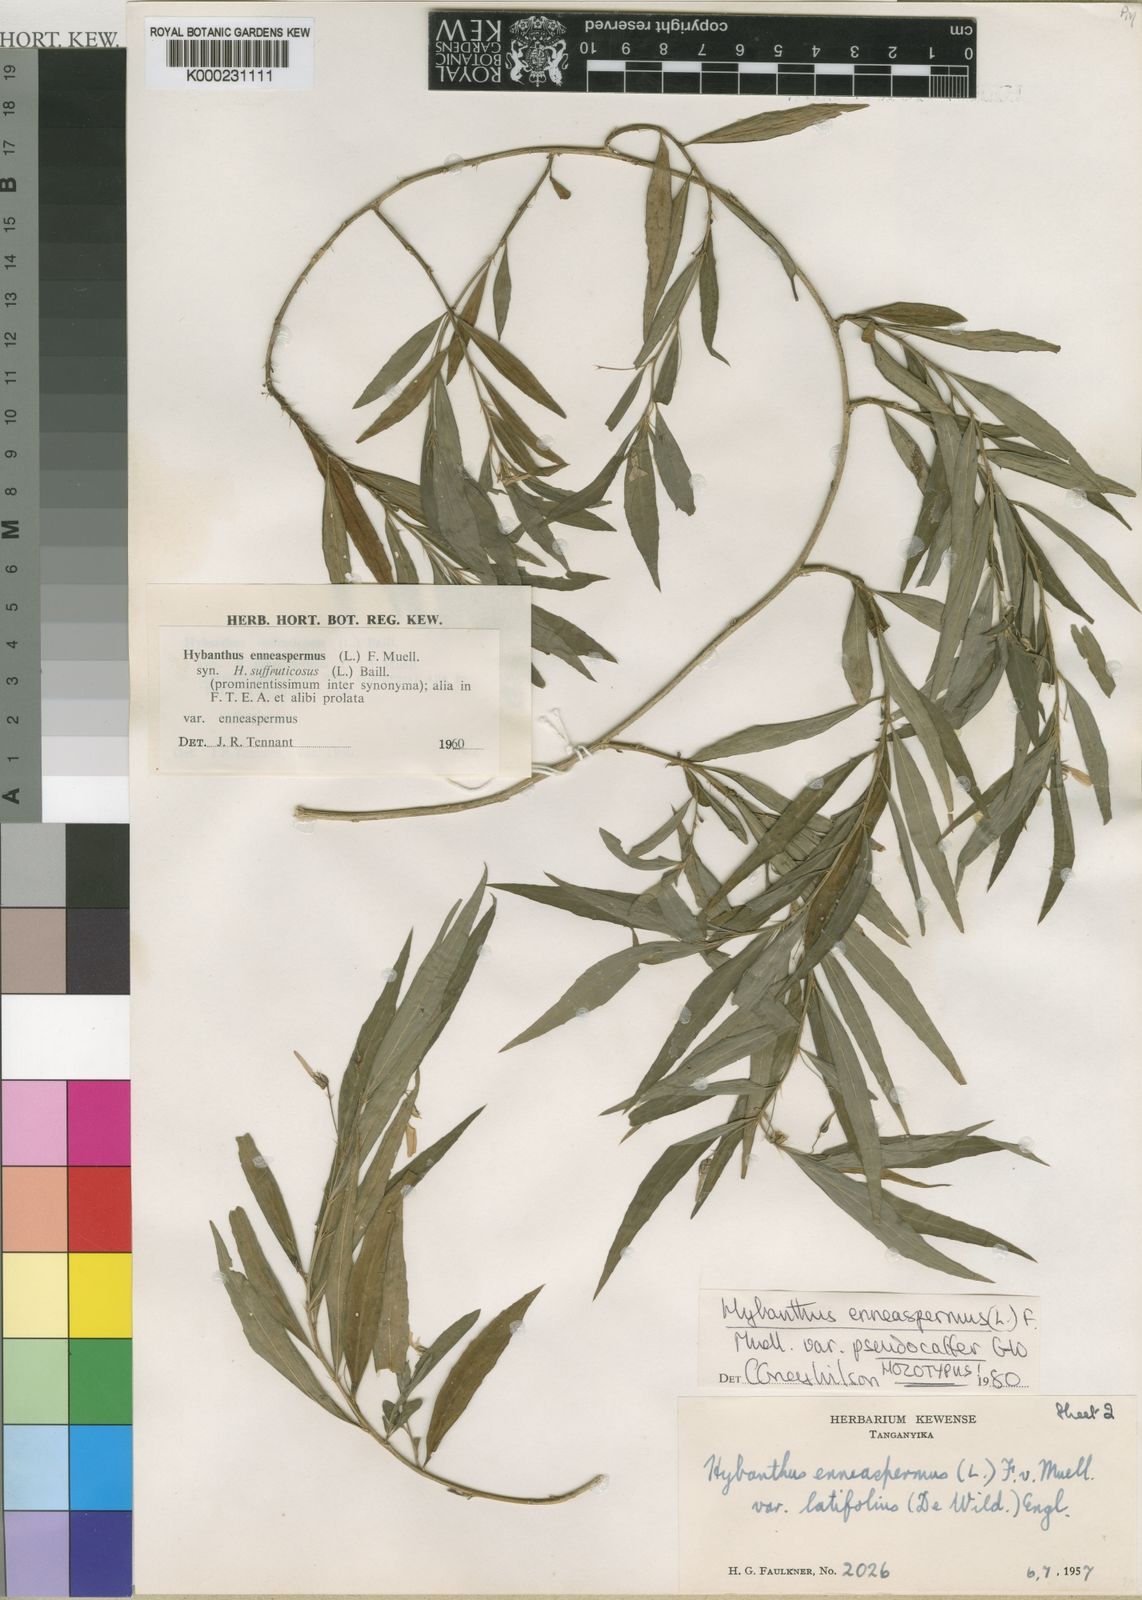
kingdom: Plantae
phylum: Tracheophyta
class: Magnoliopsida
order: Malpighiales
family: Violaceae
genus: Pigea
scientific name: Pigea enneasperma
